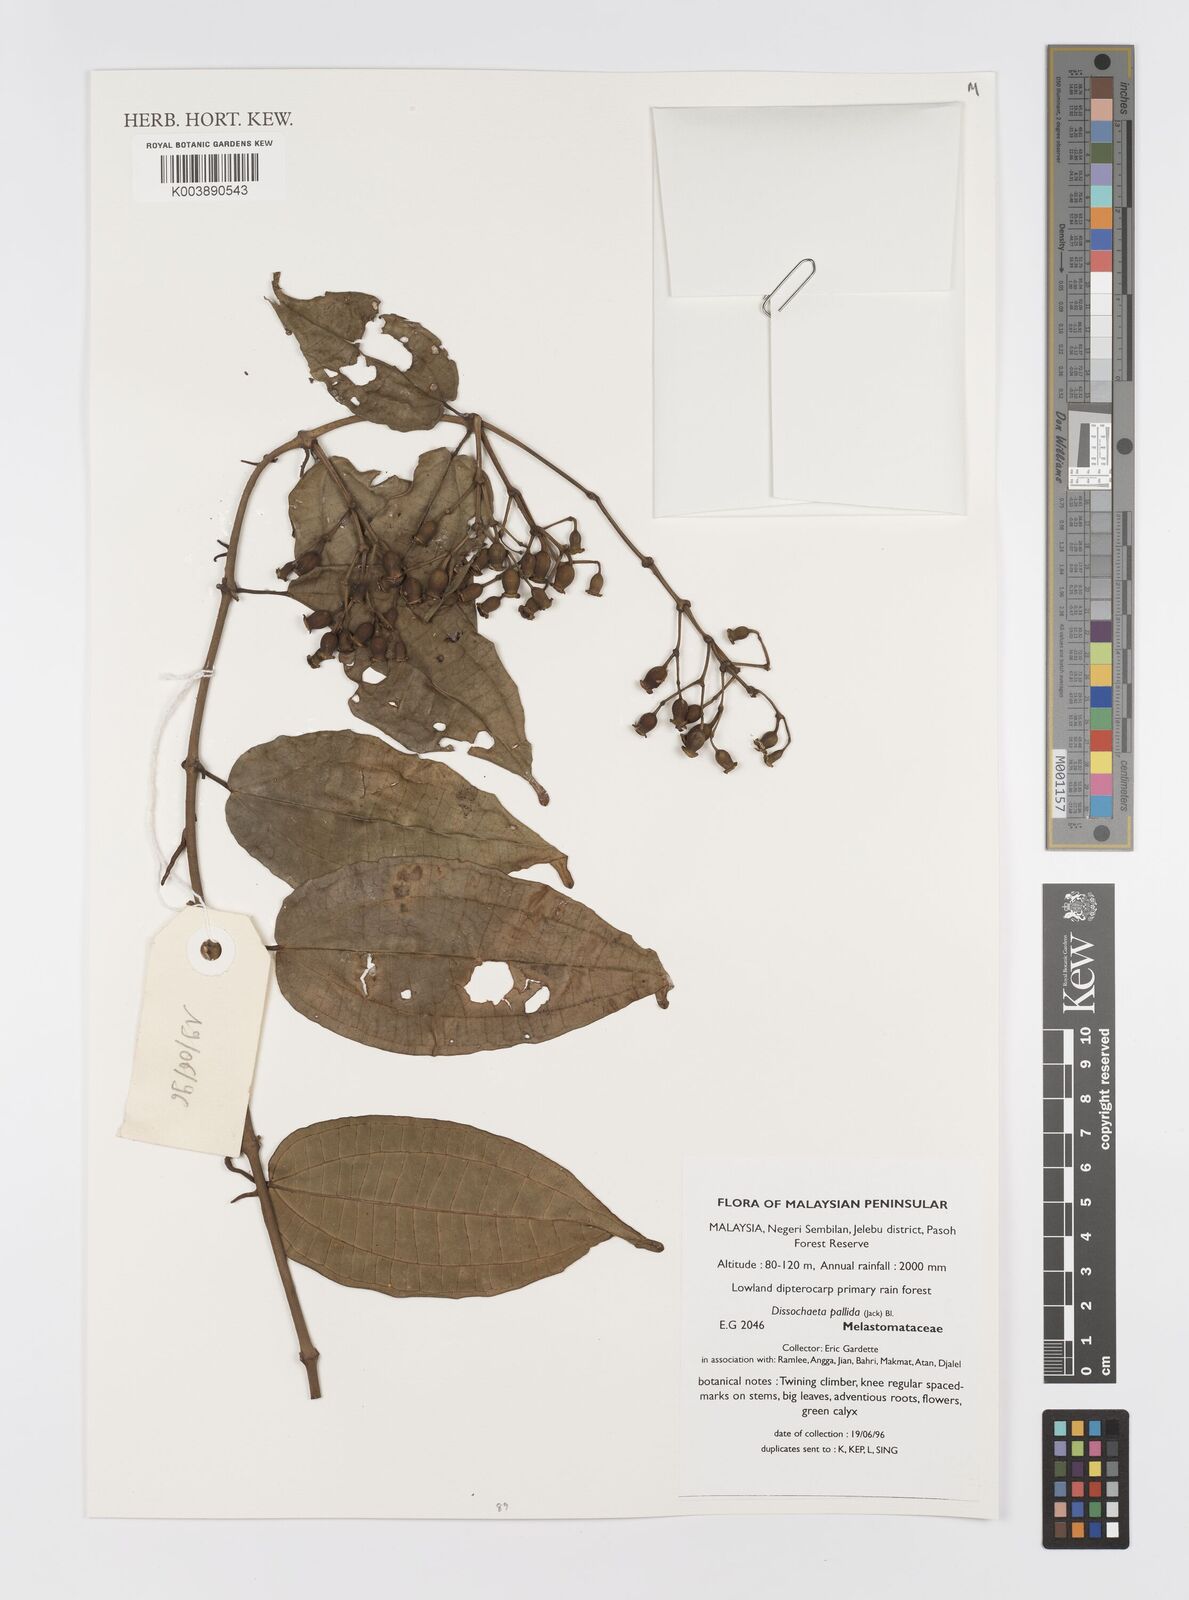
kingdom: Plantae
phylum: Tracheophyta
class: Magnoliopsida
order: Myrtales
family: Melastomataceae
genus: Dissochaeta
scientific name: Dissochaeta pallida
